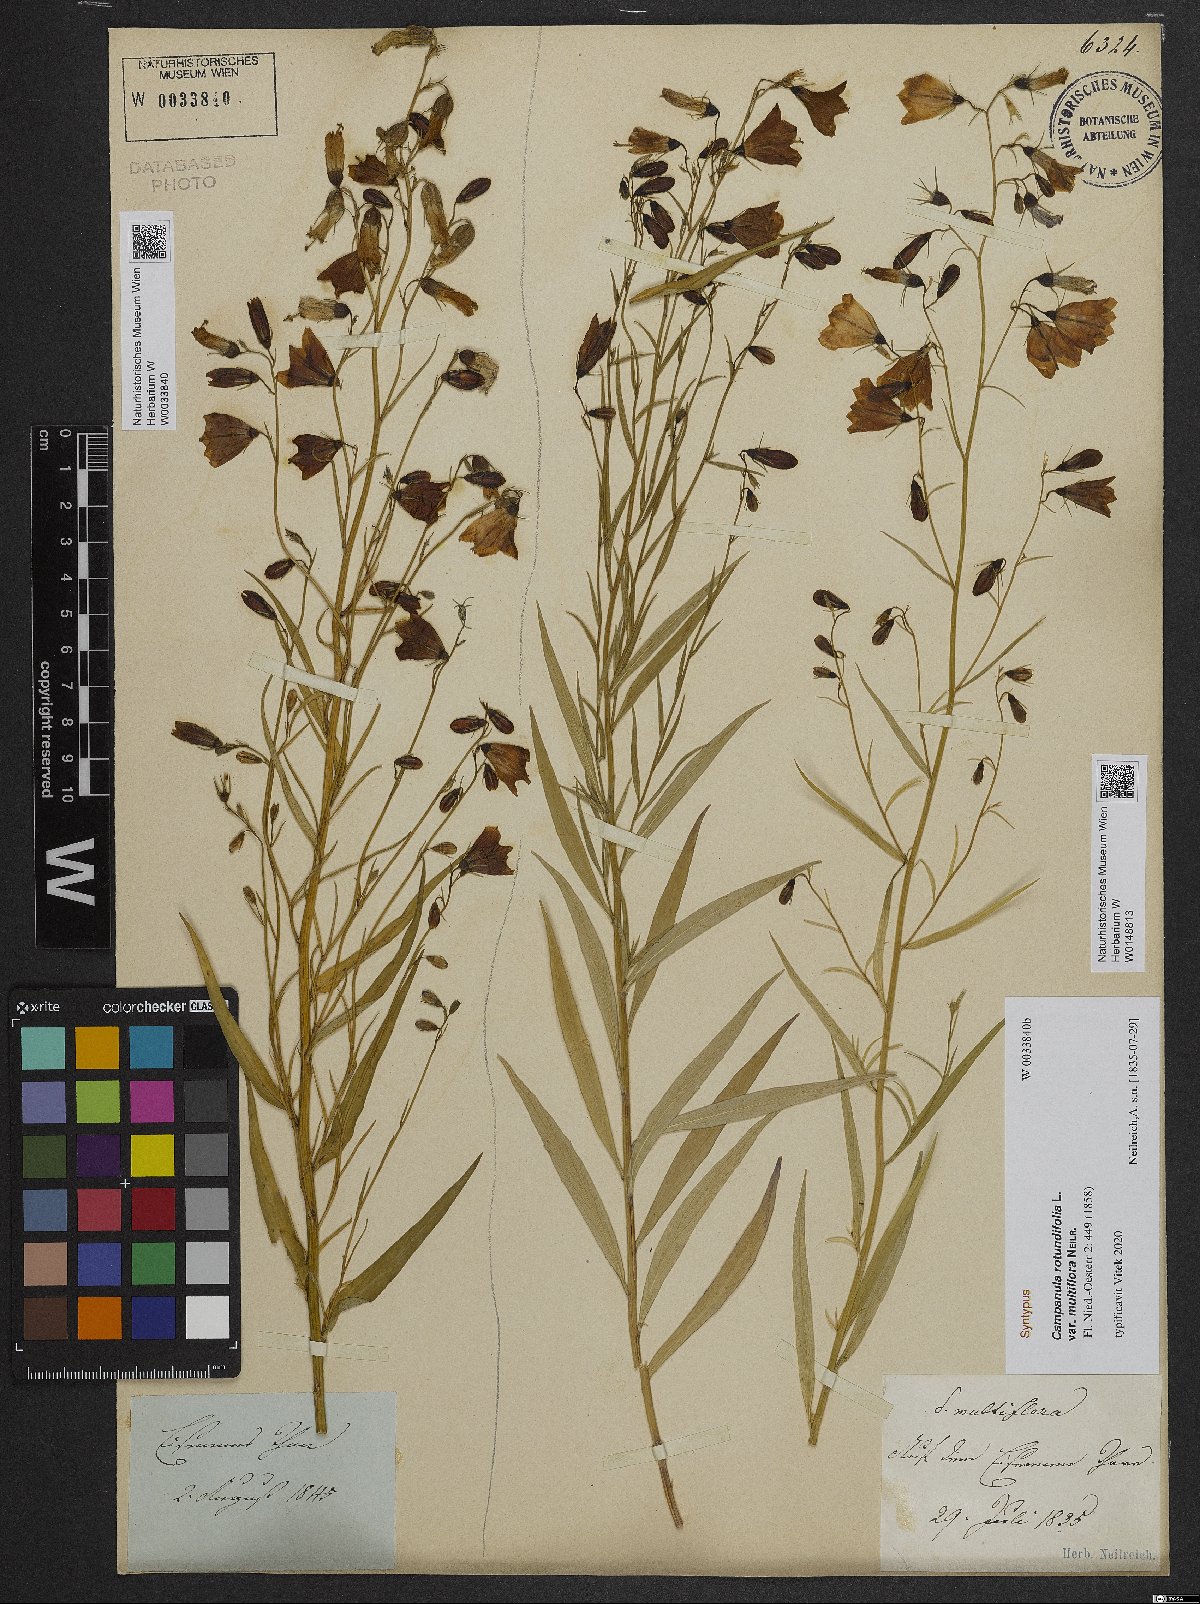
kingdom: Plantae
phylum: Tracheophyta
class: Magnoliopsida
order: Asterales
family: Campanulaceae
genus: Campanula
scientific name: Campanula baumgartenii
